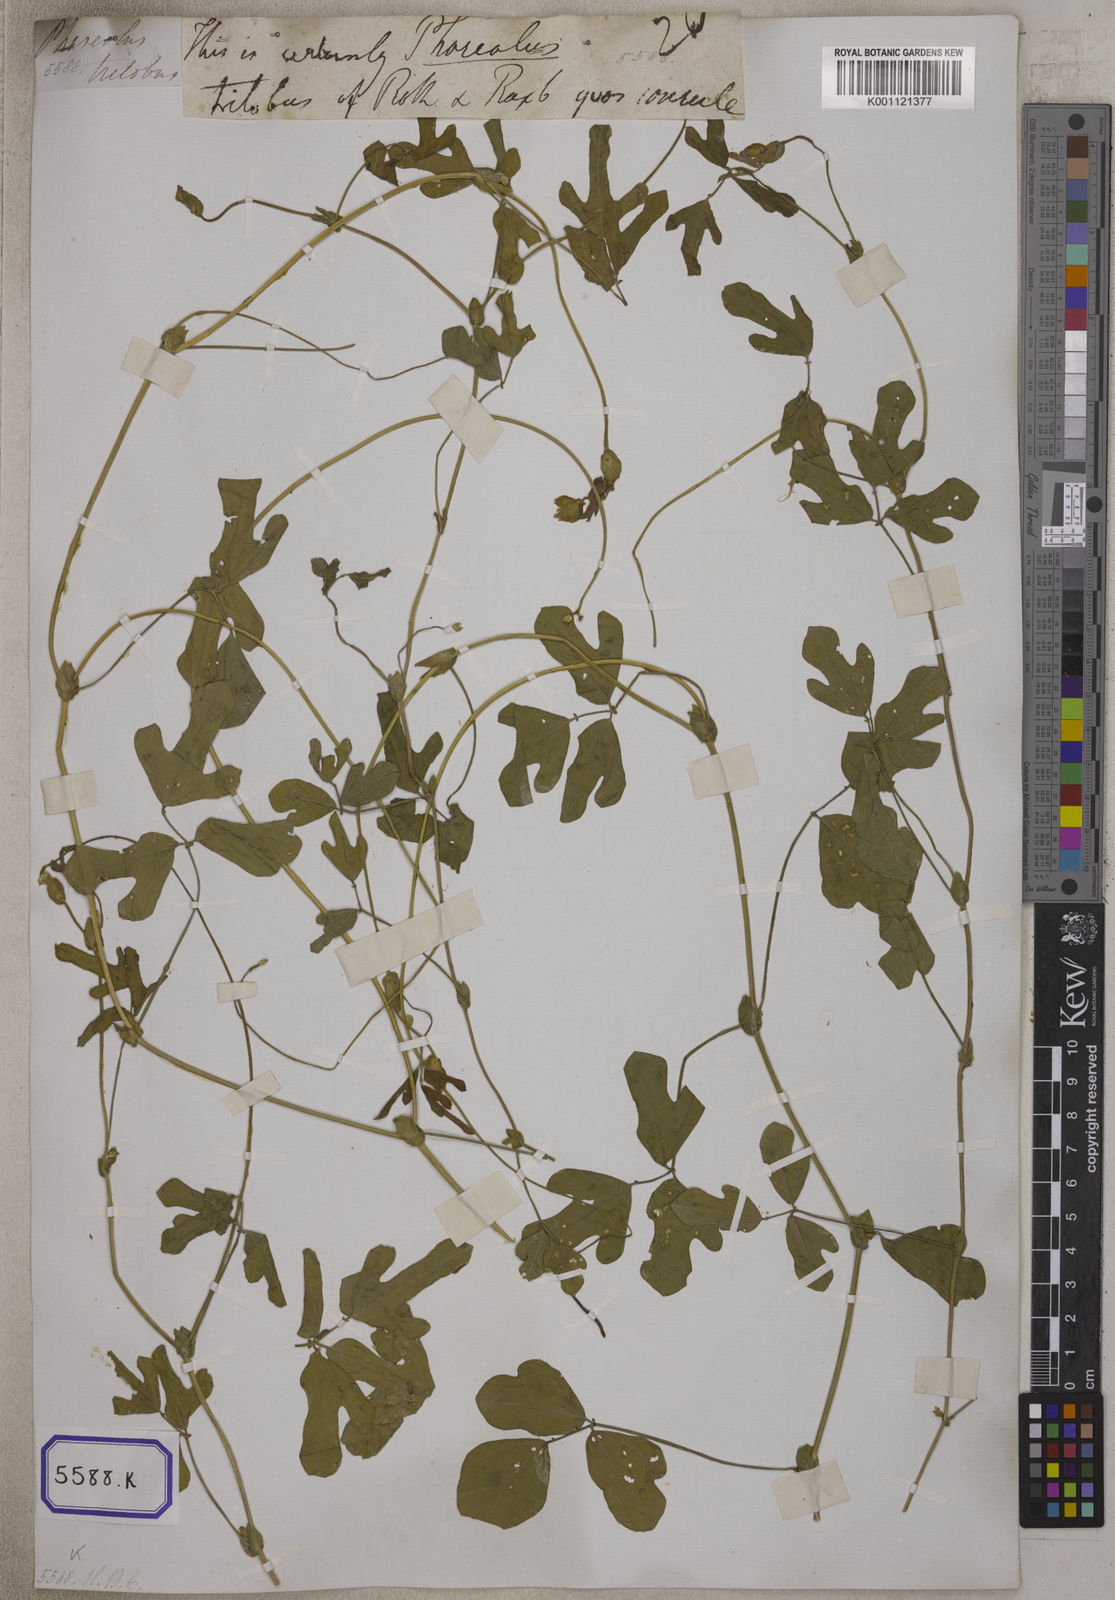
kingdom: Plantae
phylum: Tracheophyta
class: Magnoliopsida
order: Fabales
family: Fabaceae
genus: Phaseolus
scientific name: Phaseolus
